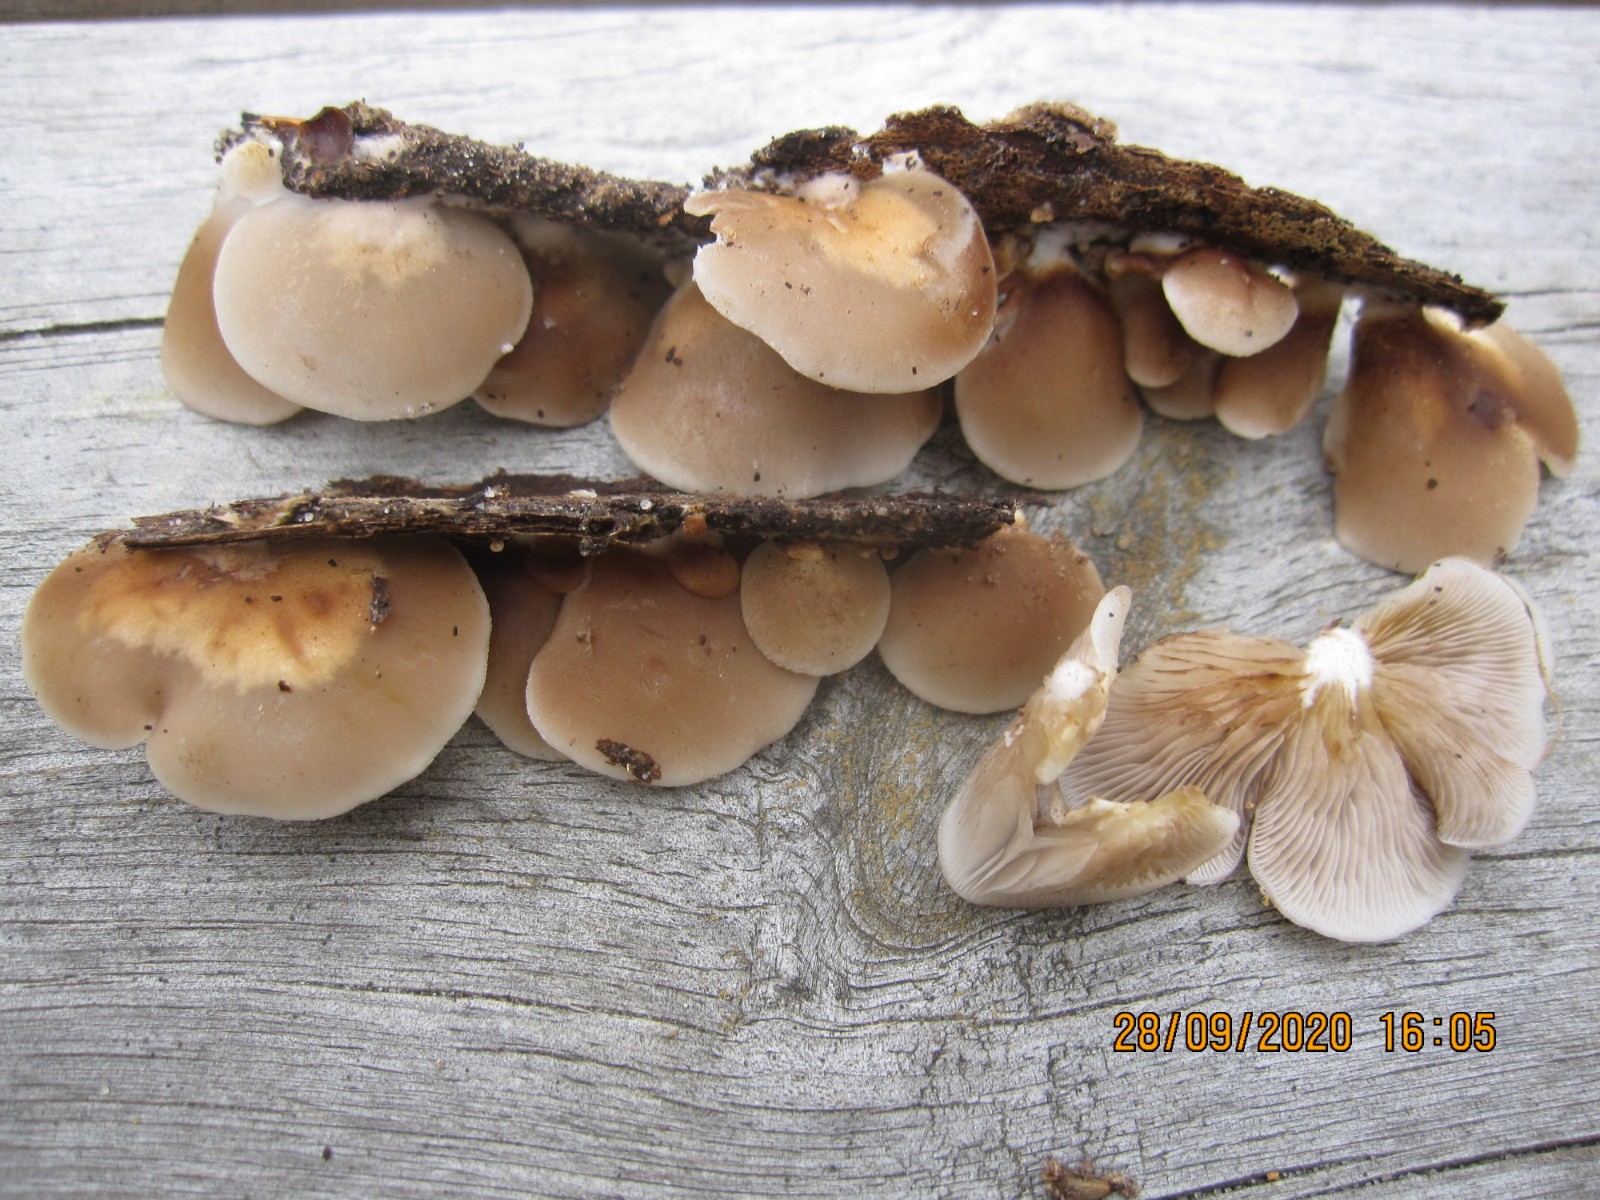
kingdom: Fungi
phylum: Basidiomycota
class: Agaricomycetes
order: Agaricales
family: Crepidotaceae
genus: Crepidotus
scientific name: Crepidotus mollis
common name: blød muslingesvamp
